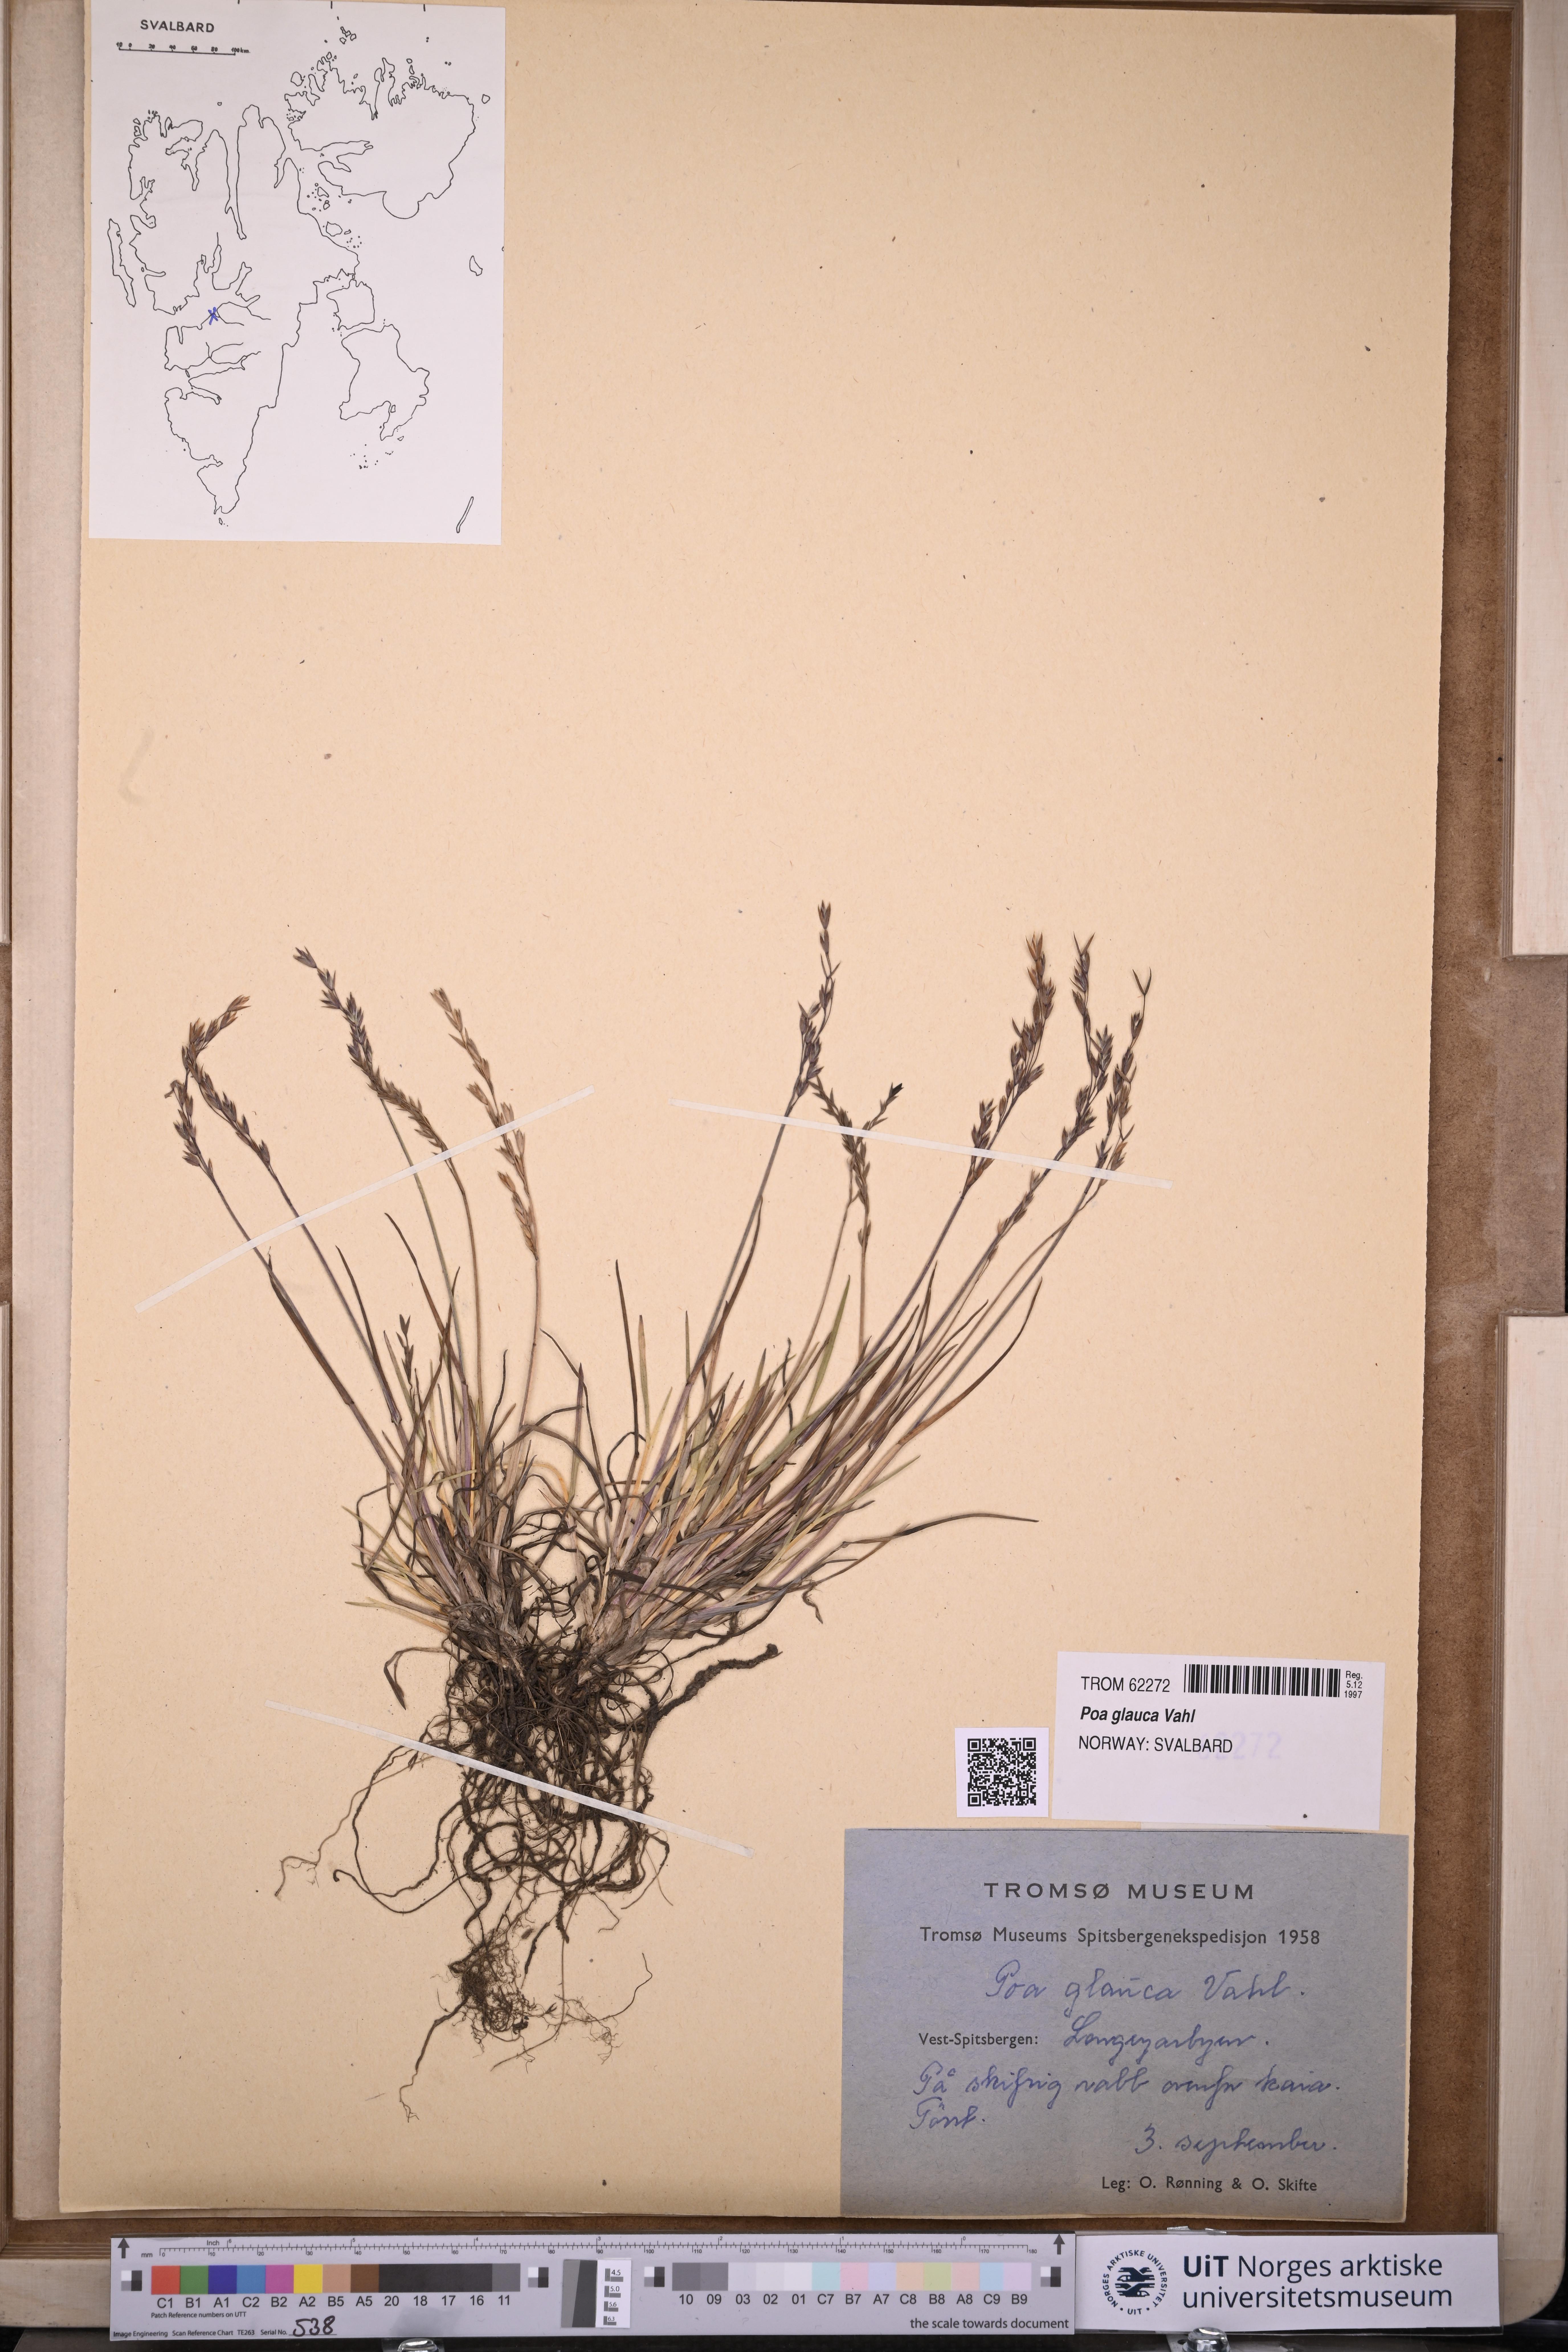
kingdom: Plantae
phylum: Tracheophyta
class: Liliopsida
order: Poales
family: Poaceae
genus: Poa
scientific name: Poa glauca
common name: Glaucous bluegrass
